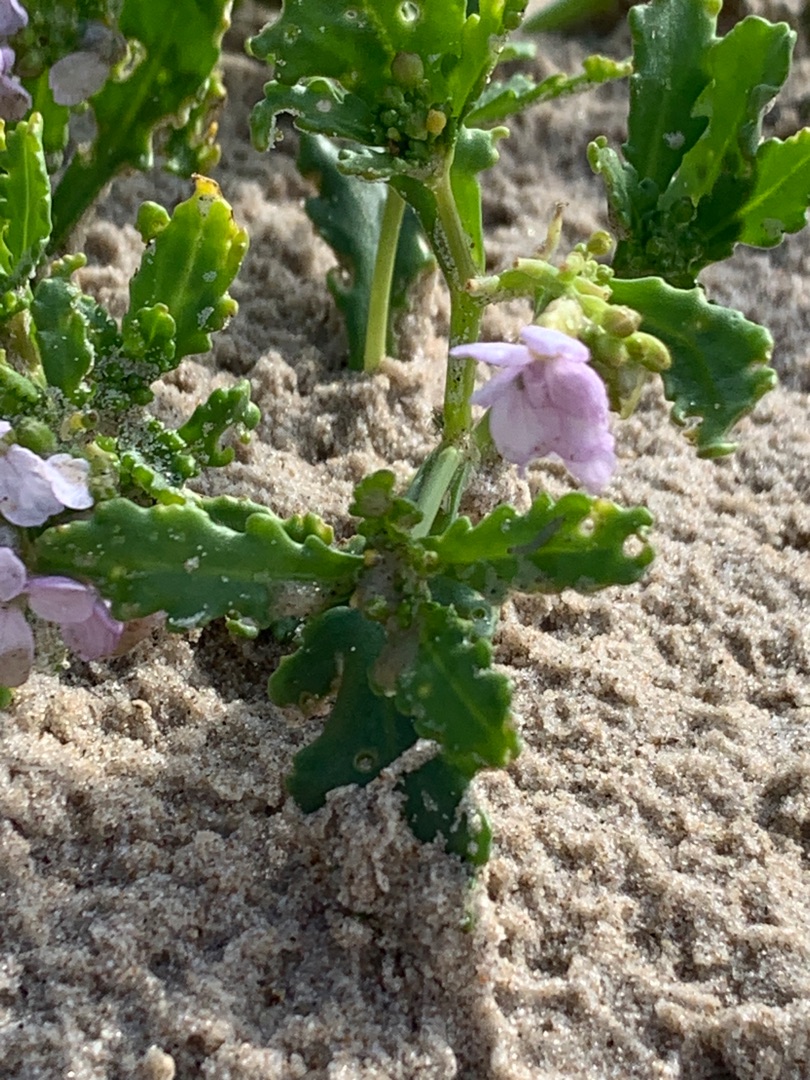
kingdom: Plantae
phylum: Tracheophyta
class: Magnoliopsida
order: Brassicales
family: Brassicaceae
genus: Cakile
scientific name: Cakile maritima
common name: Strandsennep
